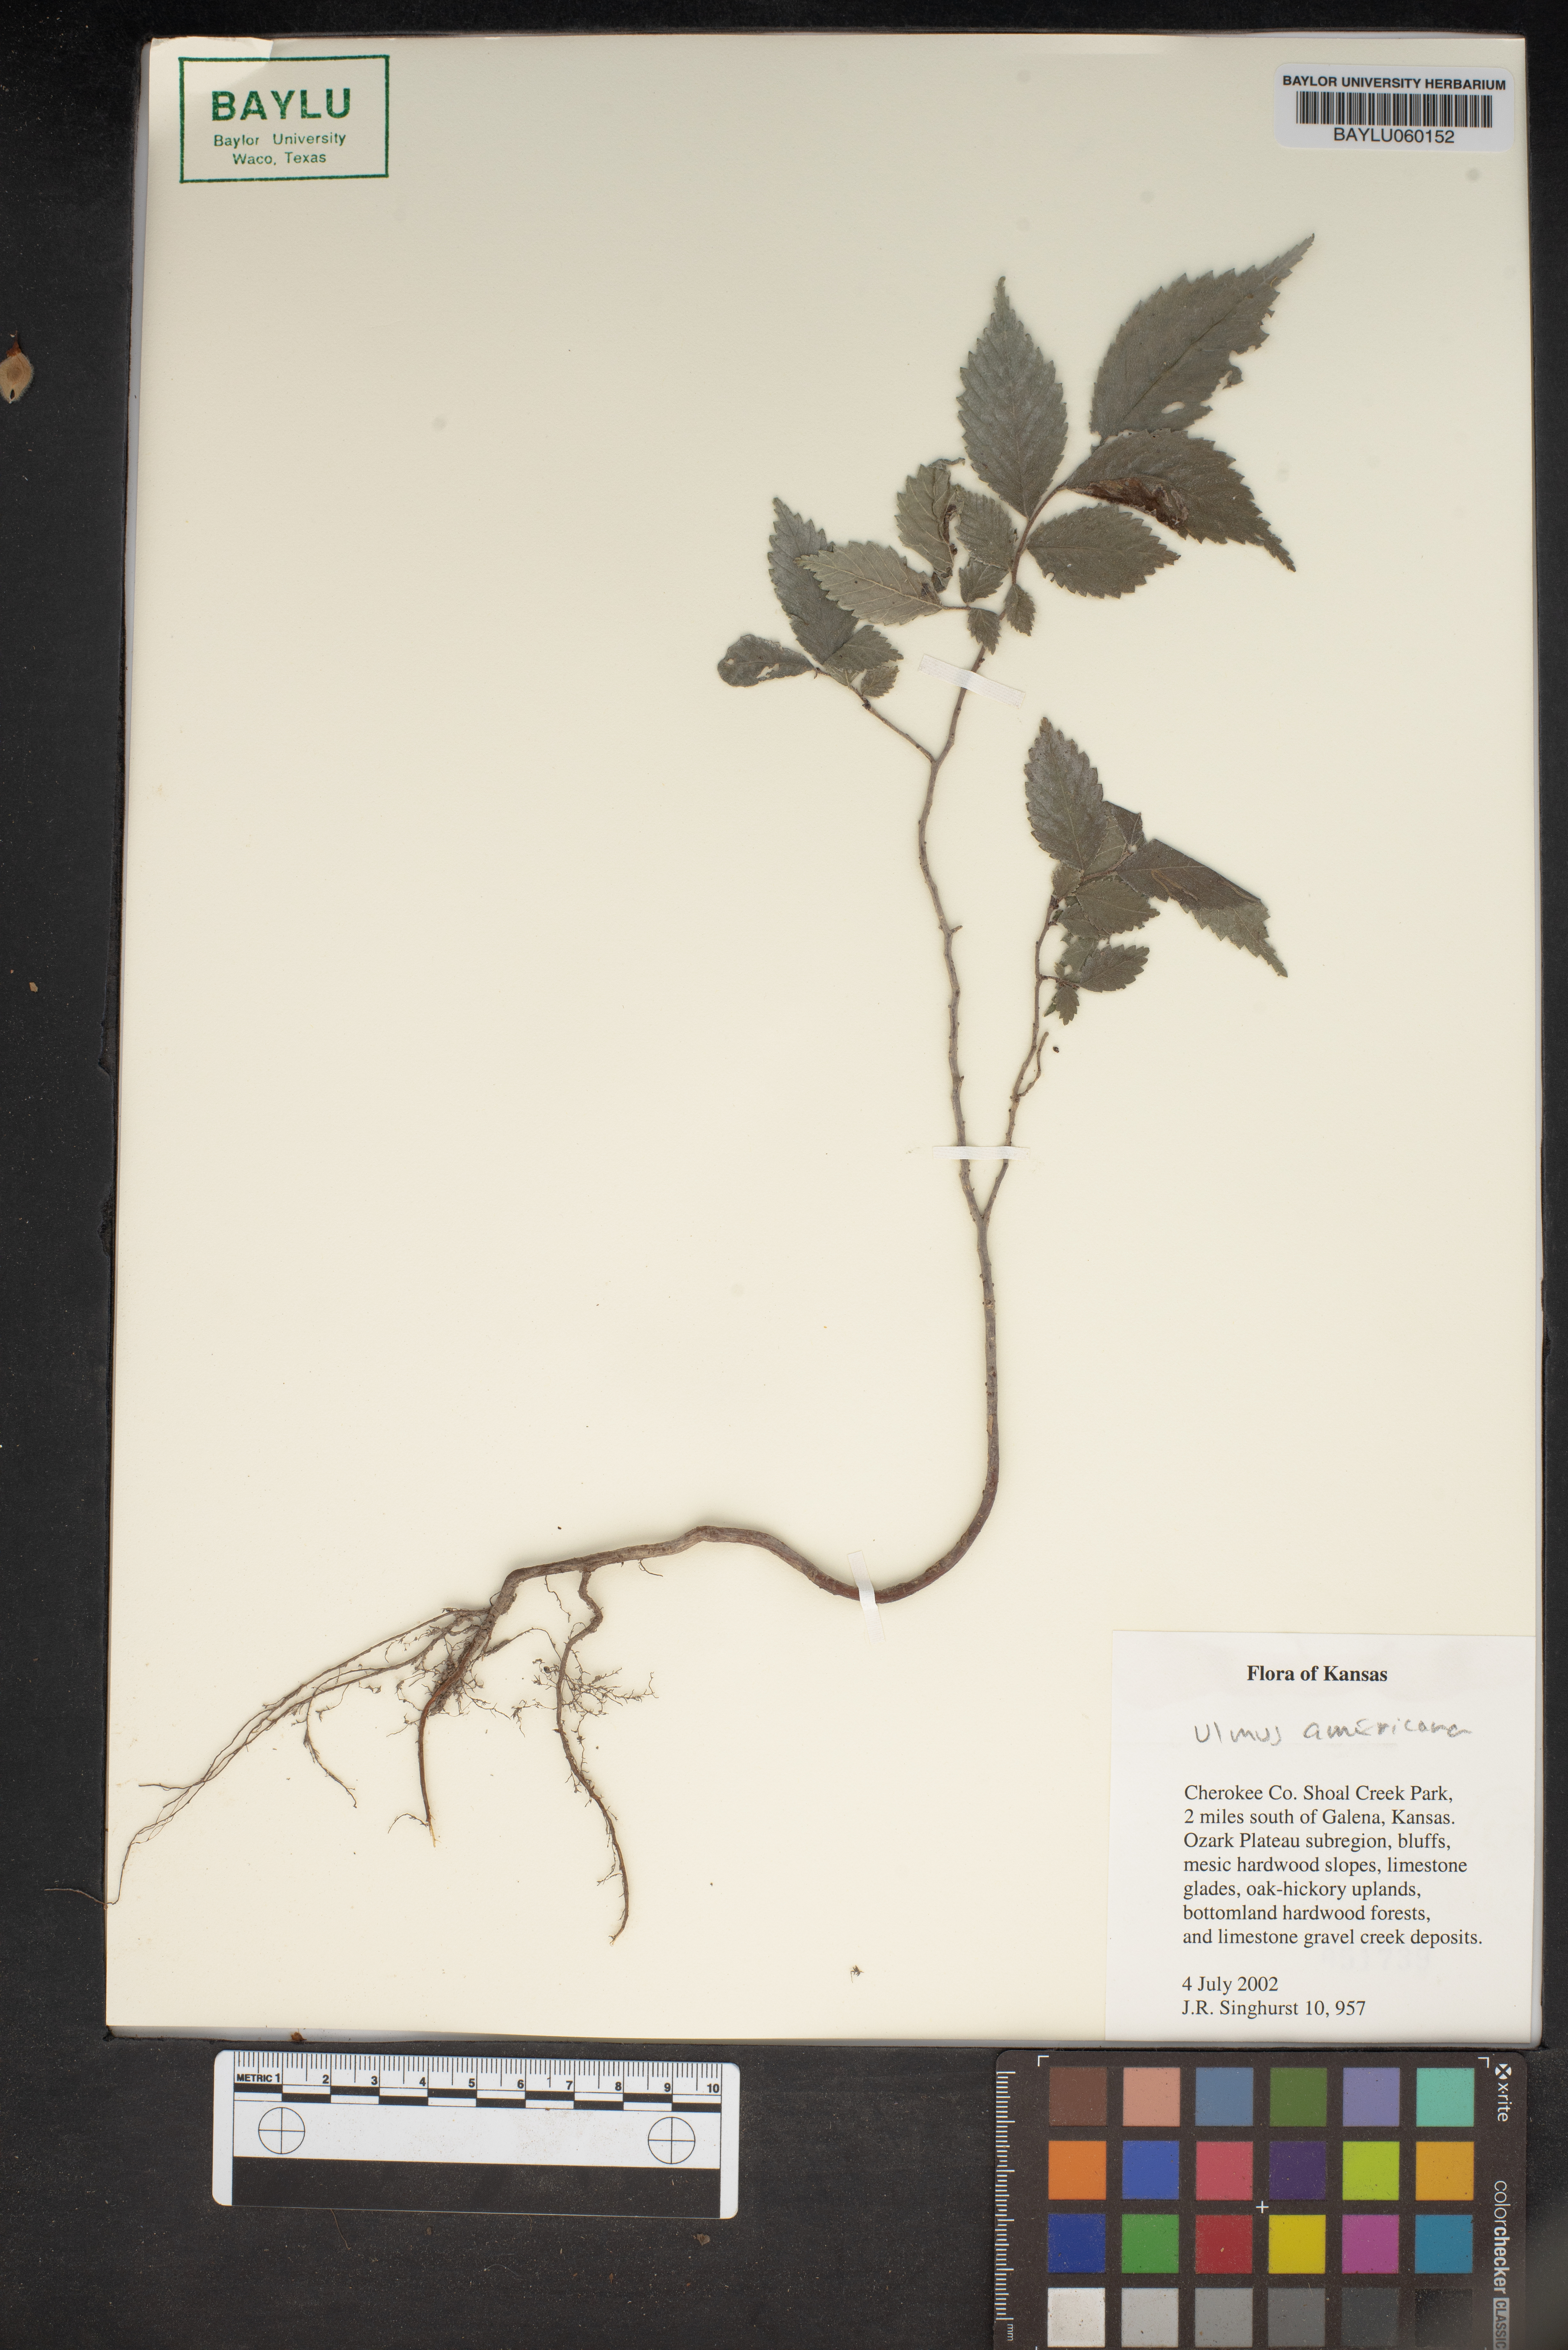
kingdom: Plantae
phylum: Tracheophyta
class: Magnoliopsida
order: Rosales
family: Ulmaceae
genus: Ulmus
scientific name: Ulmus americana
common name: American elm
